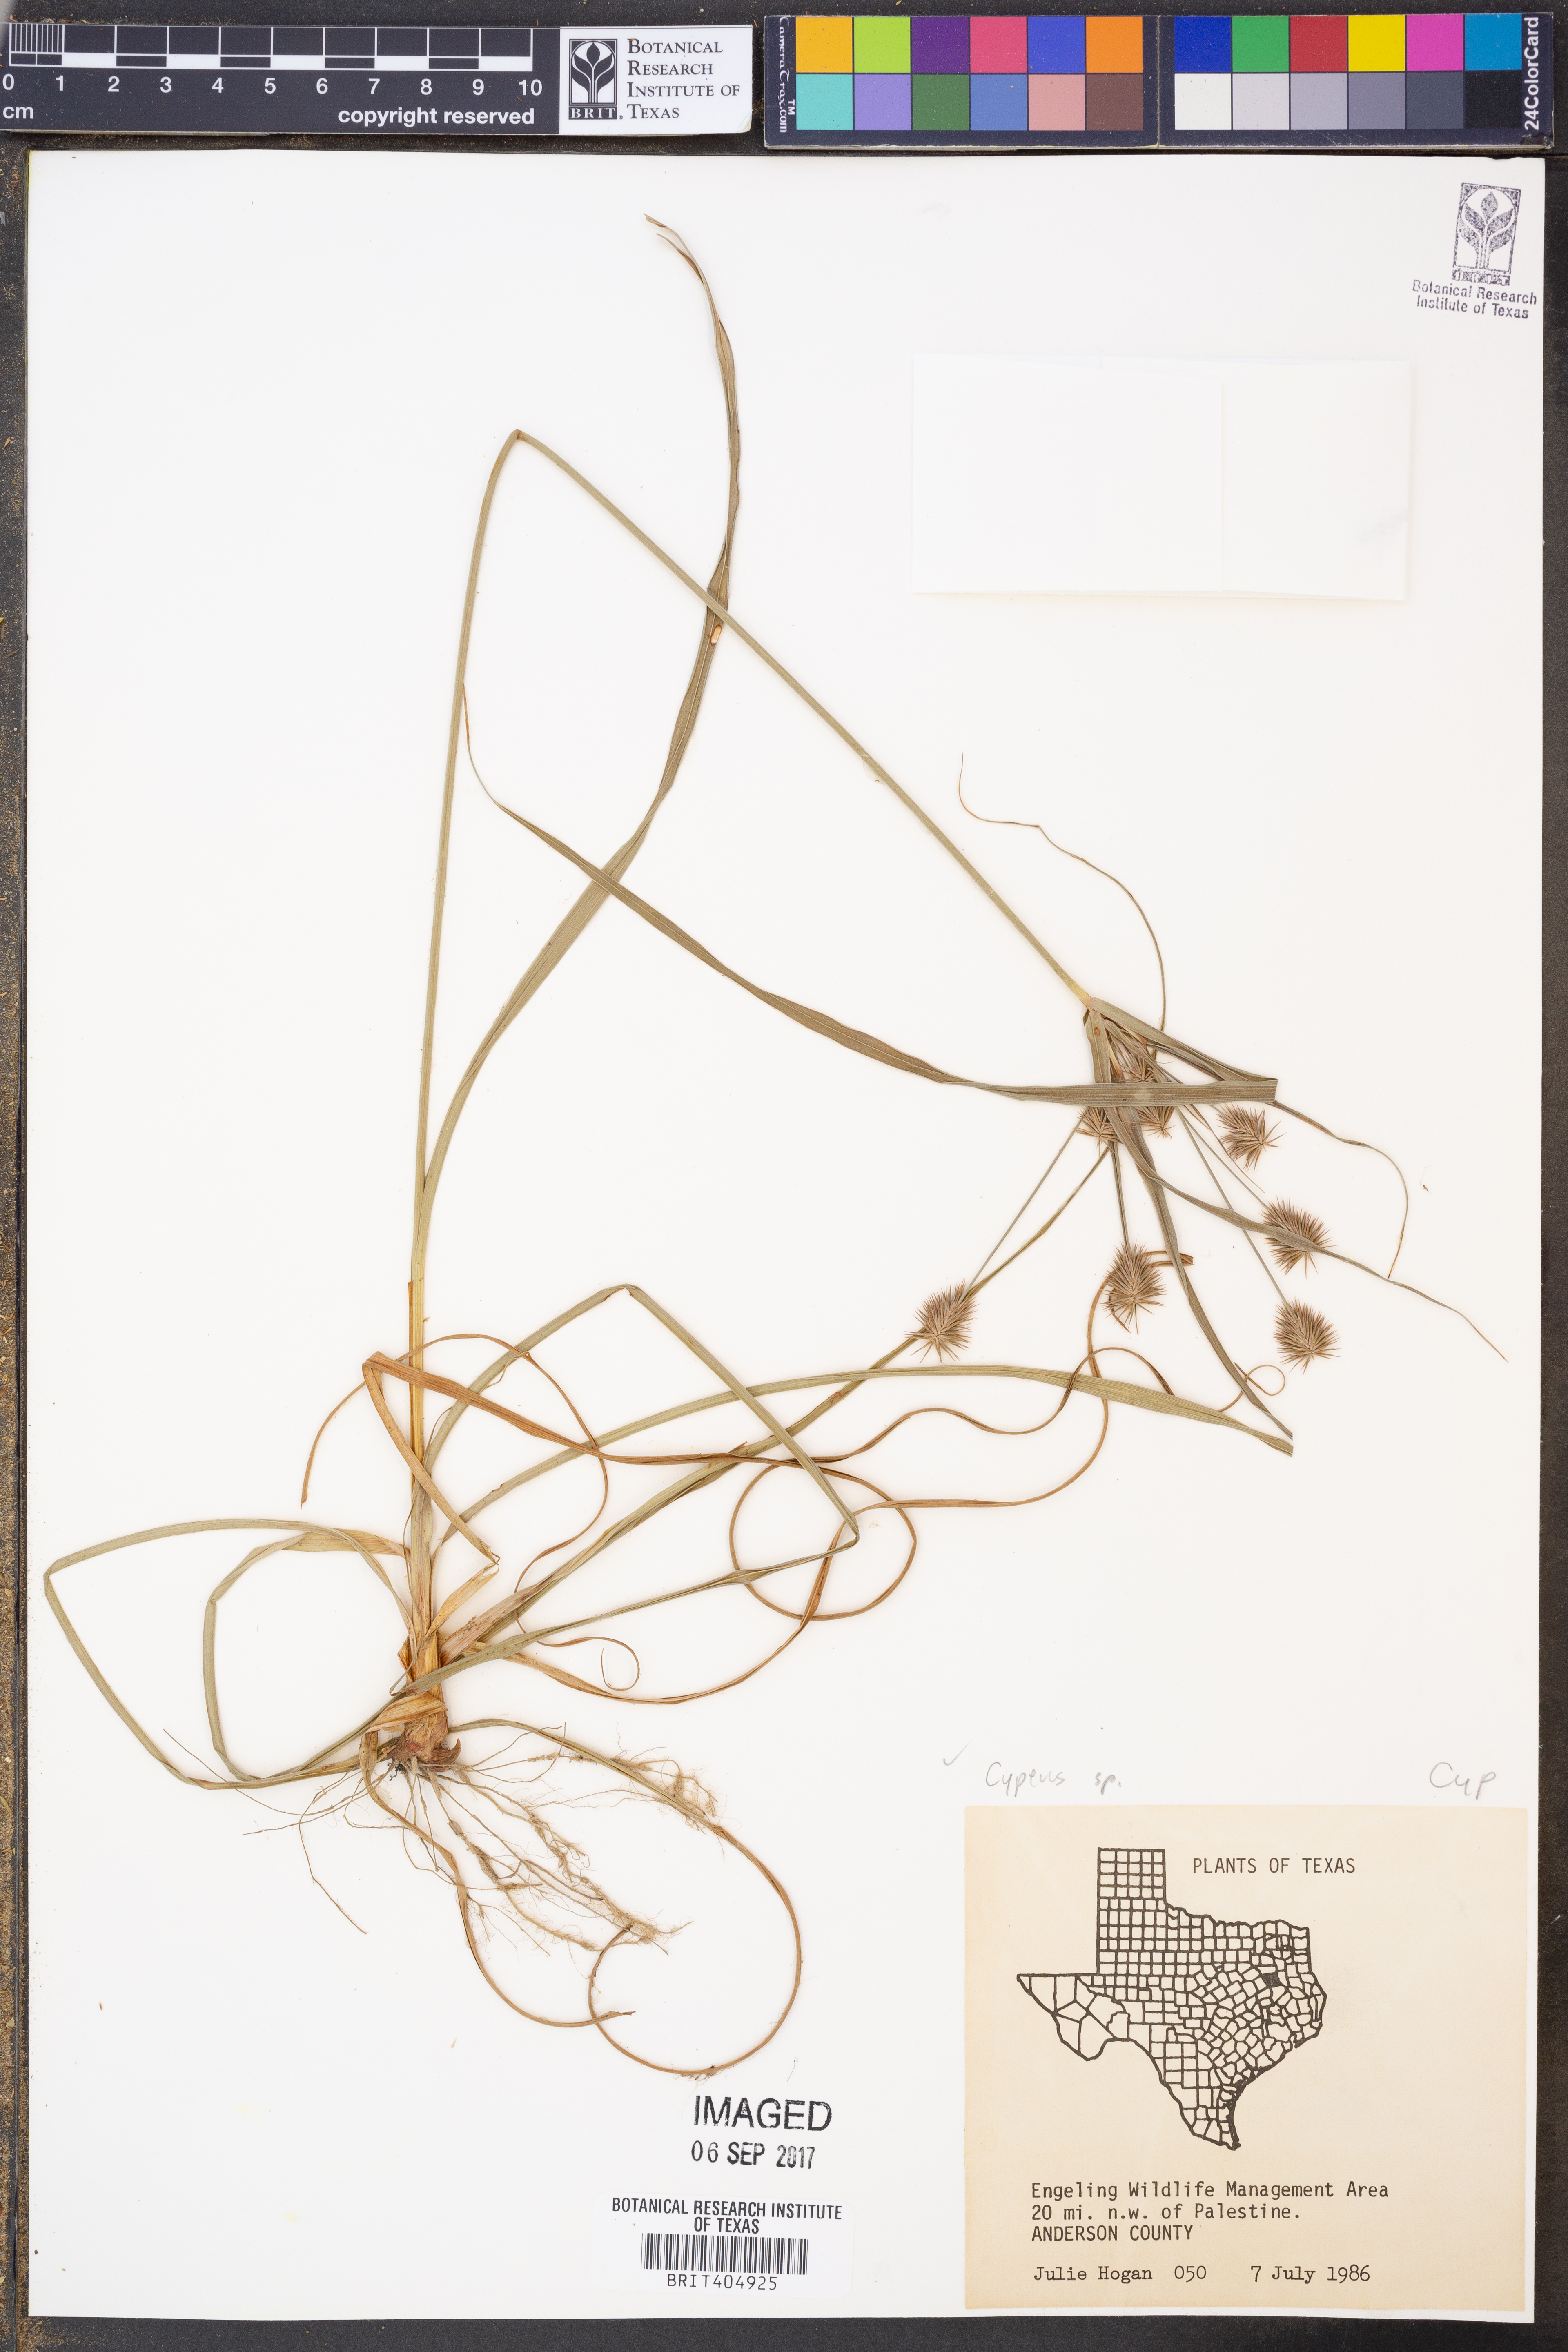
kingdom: Plantae
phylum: Tracheophyta
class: Liliopsida
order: Poales
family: Cyperaceae
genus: Cyperus
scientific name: Cyperus setigerus
